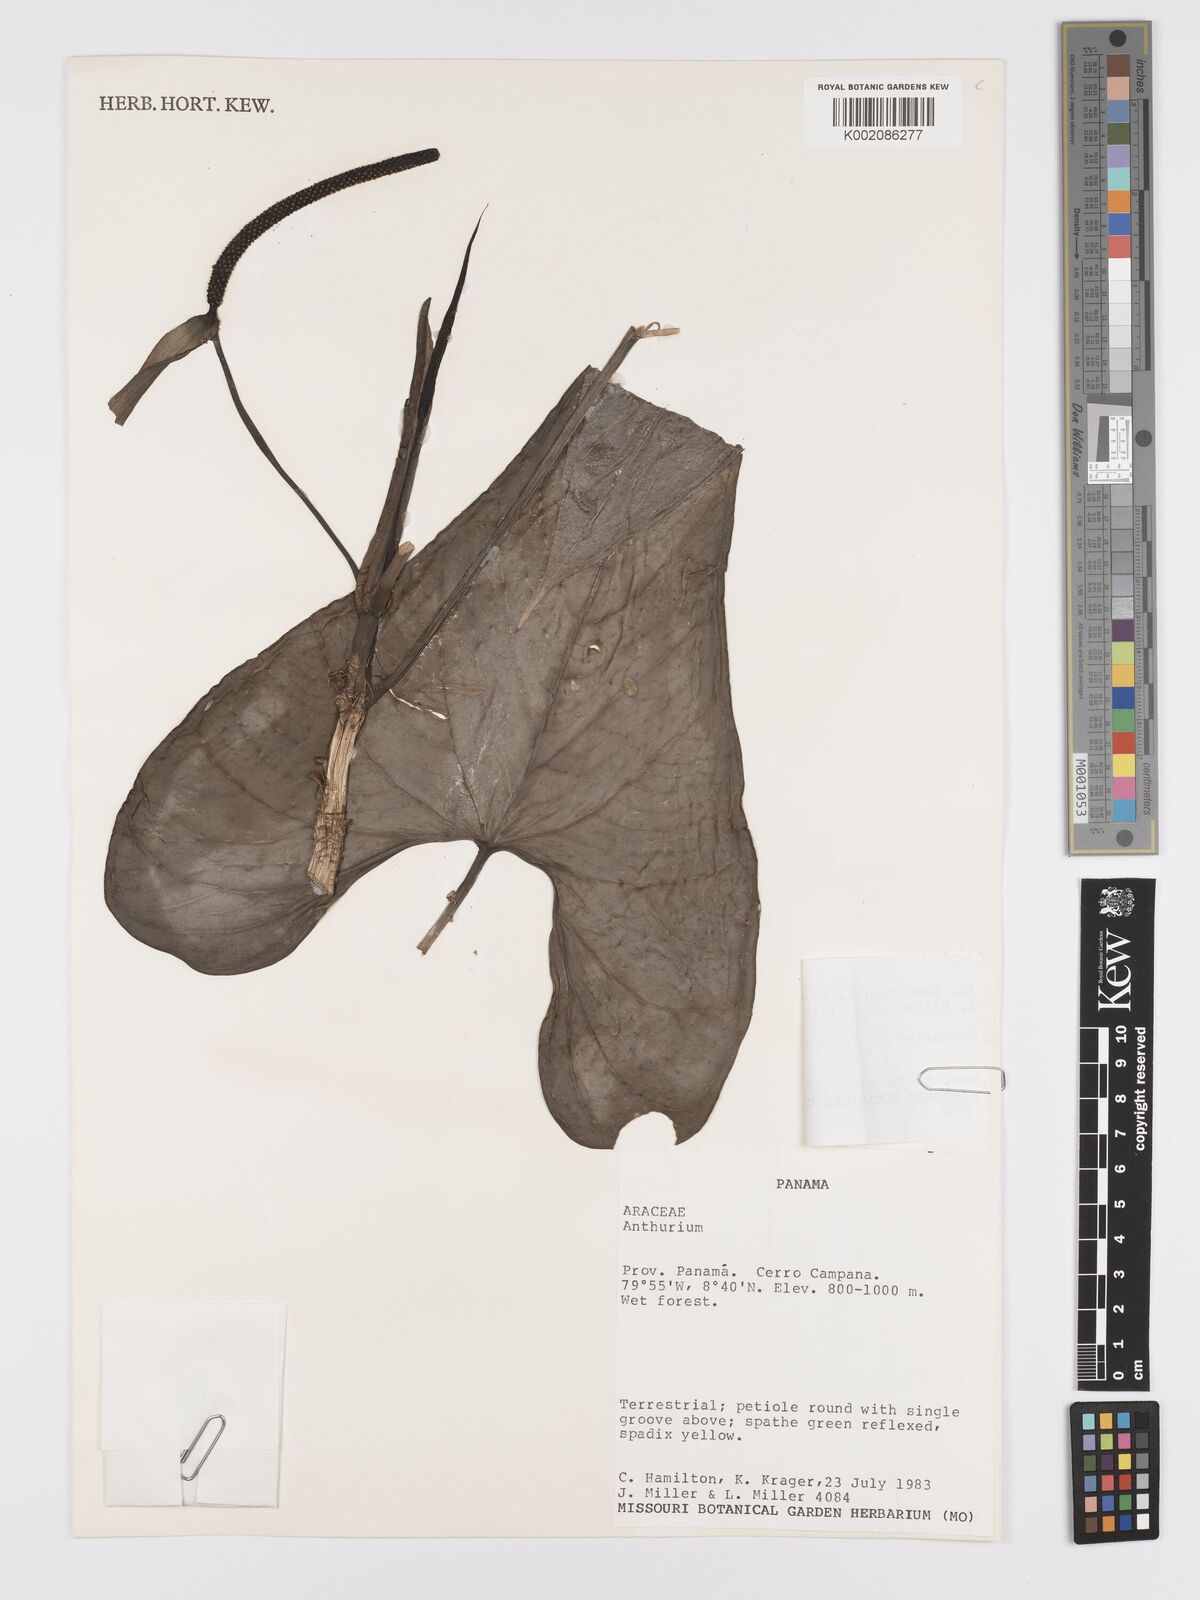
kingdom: Plantae
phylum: Tracheophyta
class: Liliopsida
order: Alismatales
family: Araceae
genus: Anthurium
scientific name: Anthurium hutchisonii
